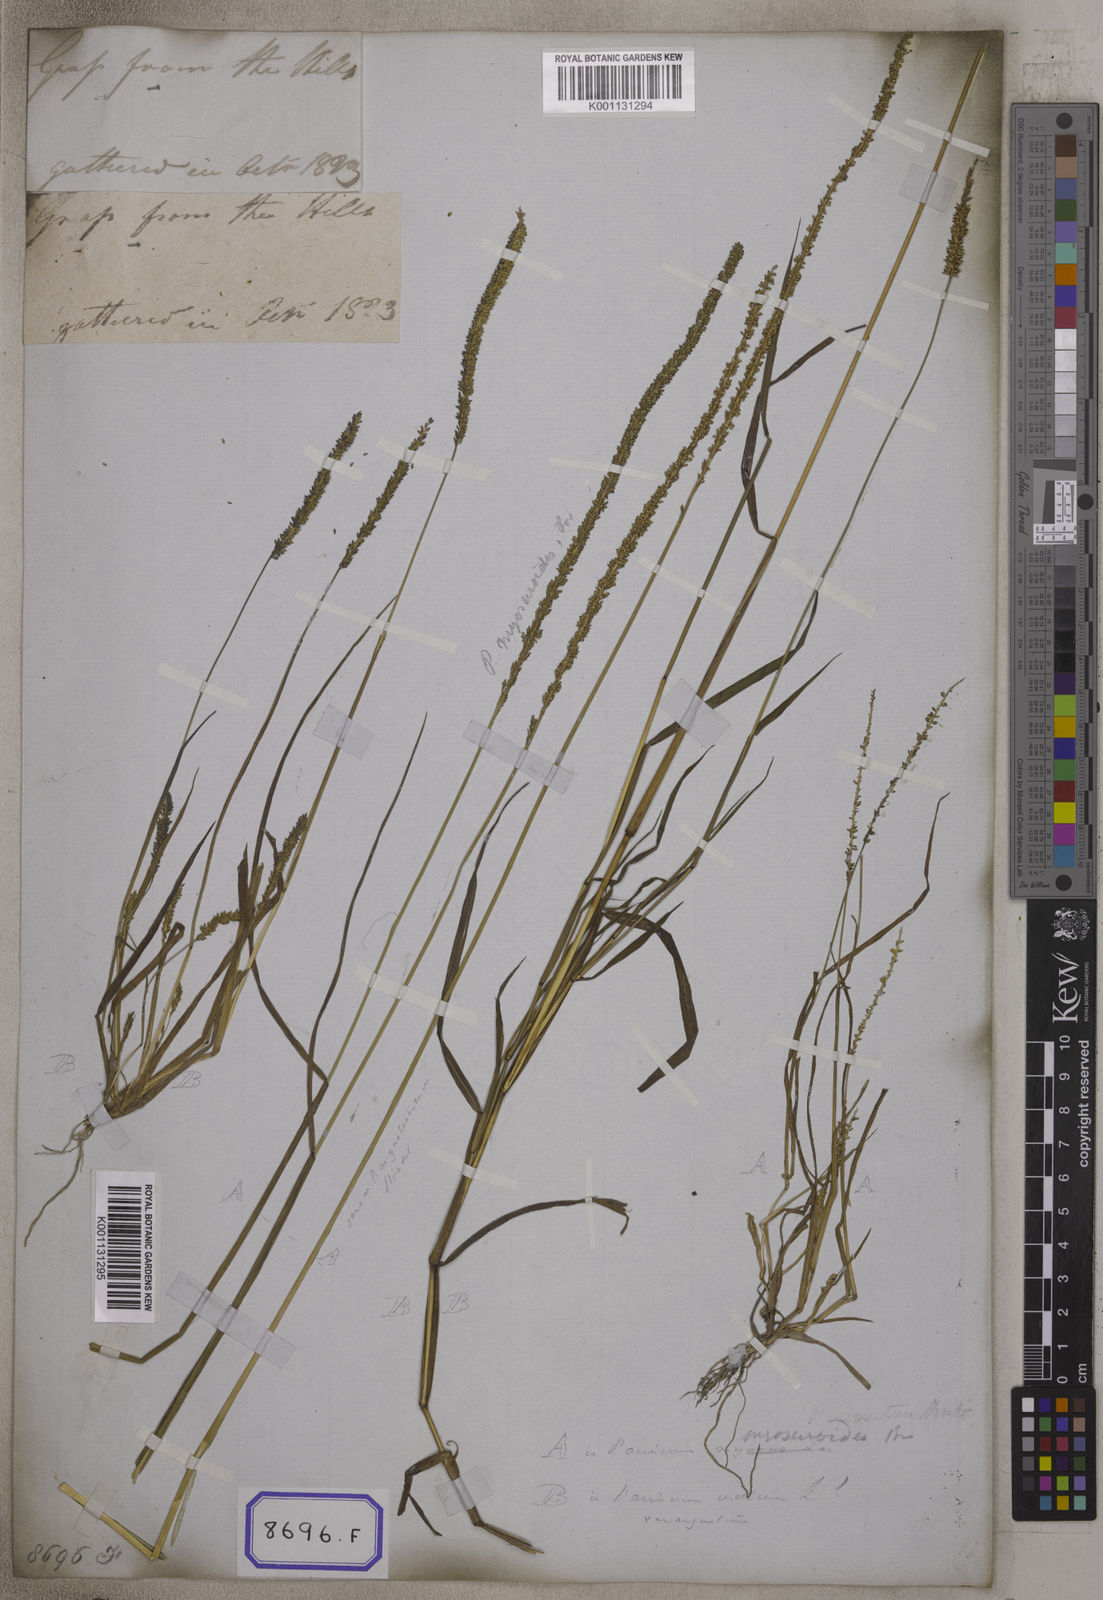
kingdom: Plantae
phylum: Tracheophyta
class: Liliopsida
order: Poales
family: Poaceae
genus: Panicum
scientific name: Panicum
